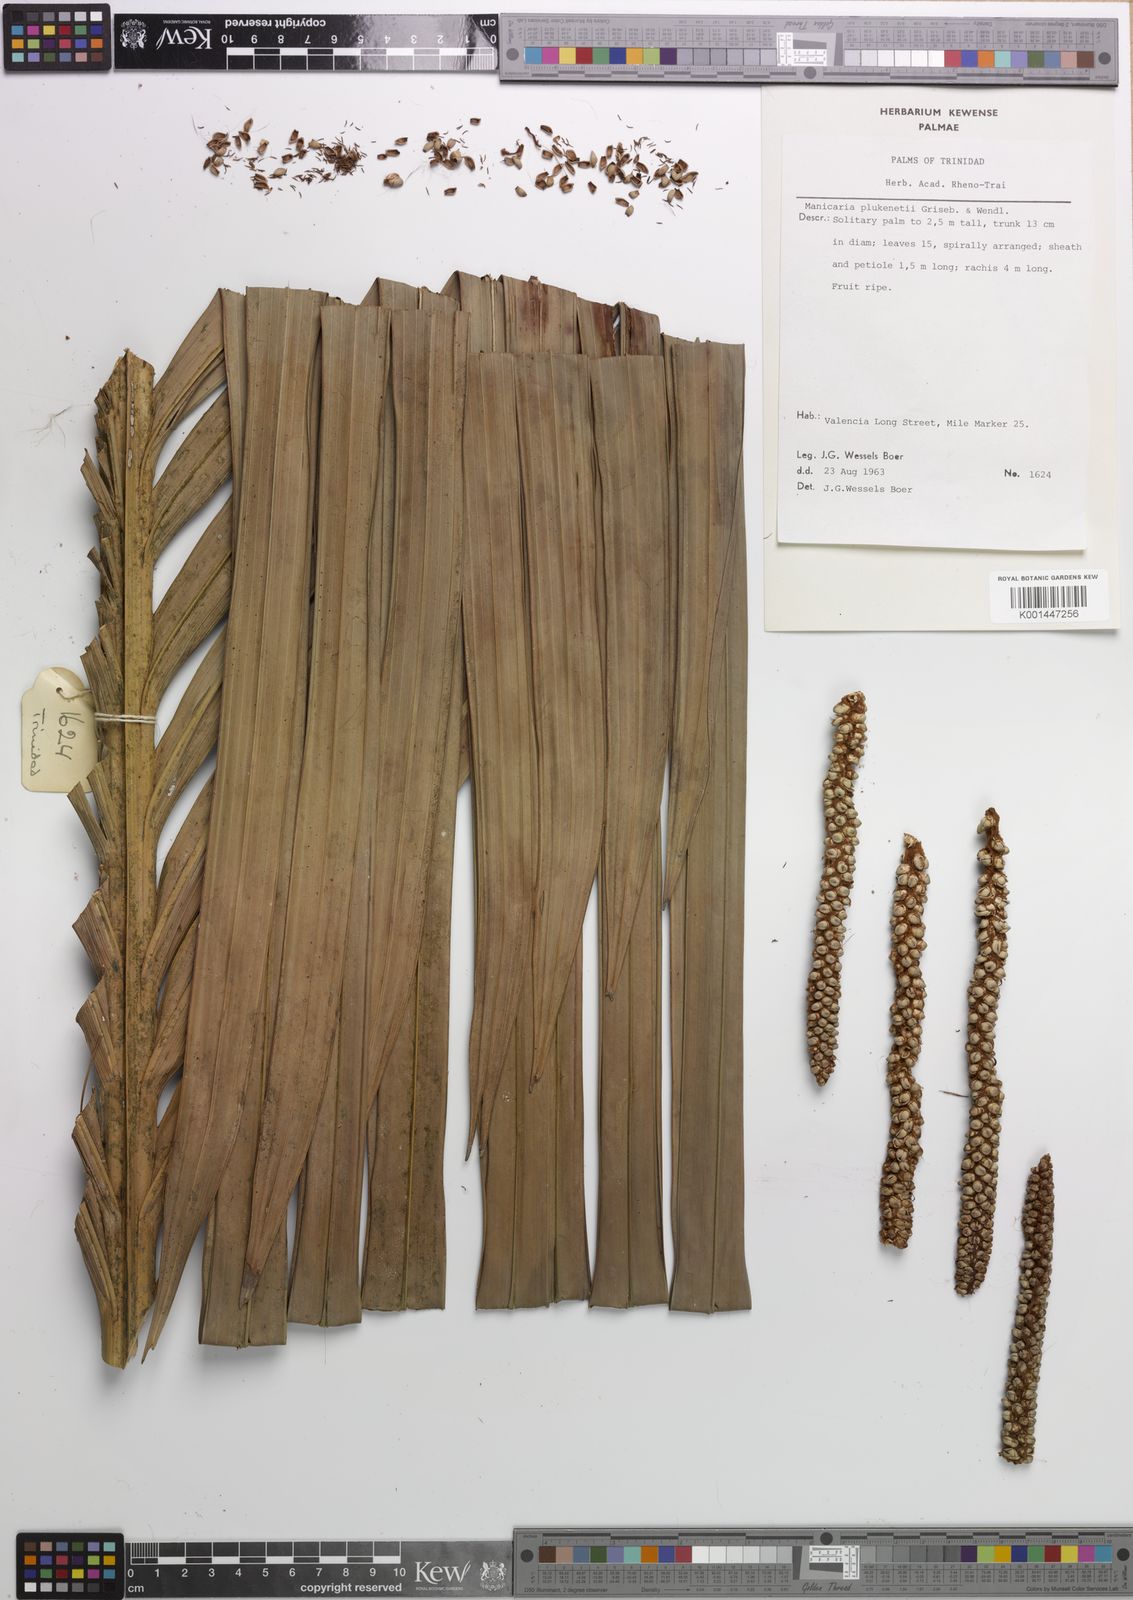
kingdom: Plantae
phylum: Tracheophyta
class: Liliopsida
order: Arecales
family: Arecaceae
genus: Manicaria
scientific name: Manicaria saccifera
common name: Sea coconut
